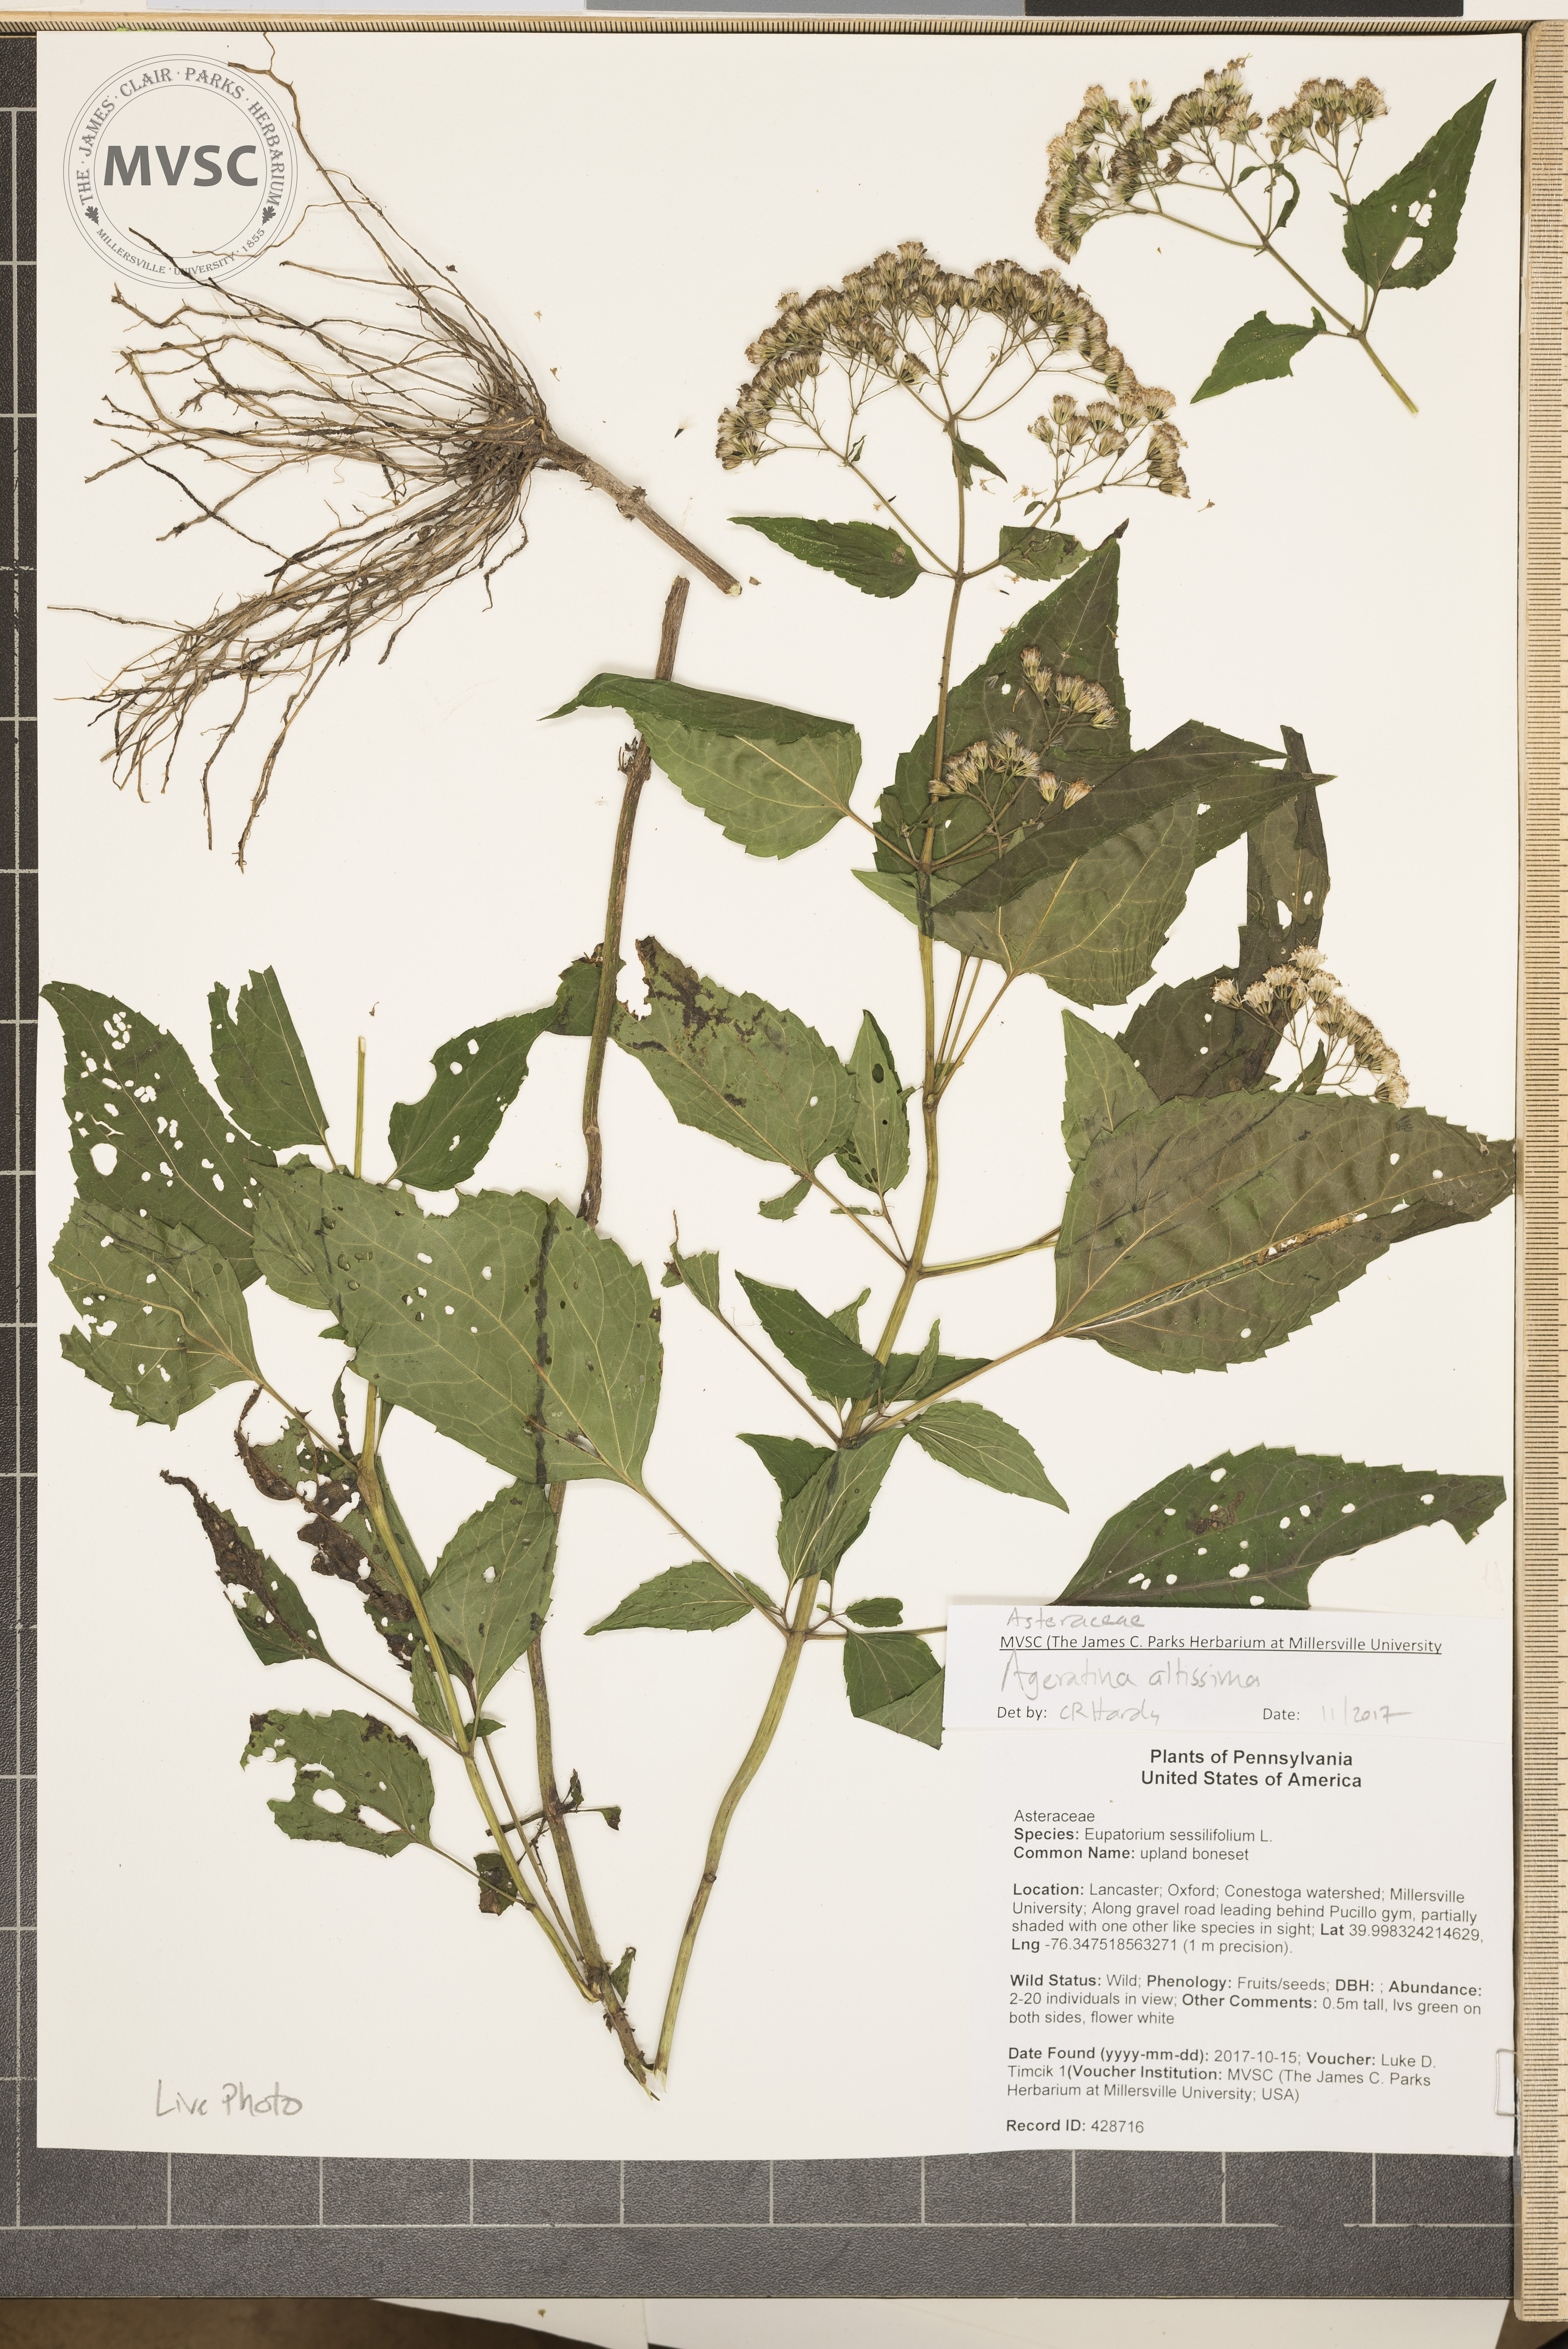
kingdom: Plantae
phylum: Tracheophyta
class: Magnoliopsida
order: Asterales
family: Asteraceae
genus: Ageratina
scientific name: Ageratina altissima
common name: White snakeroot
